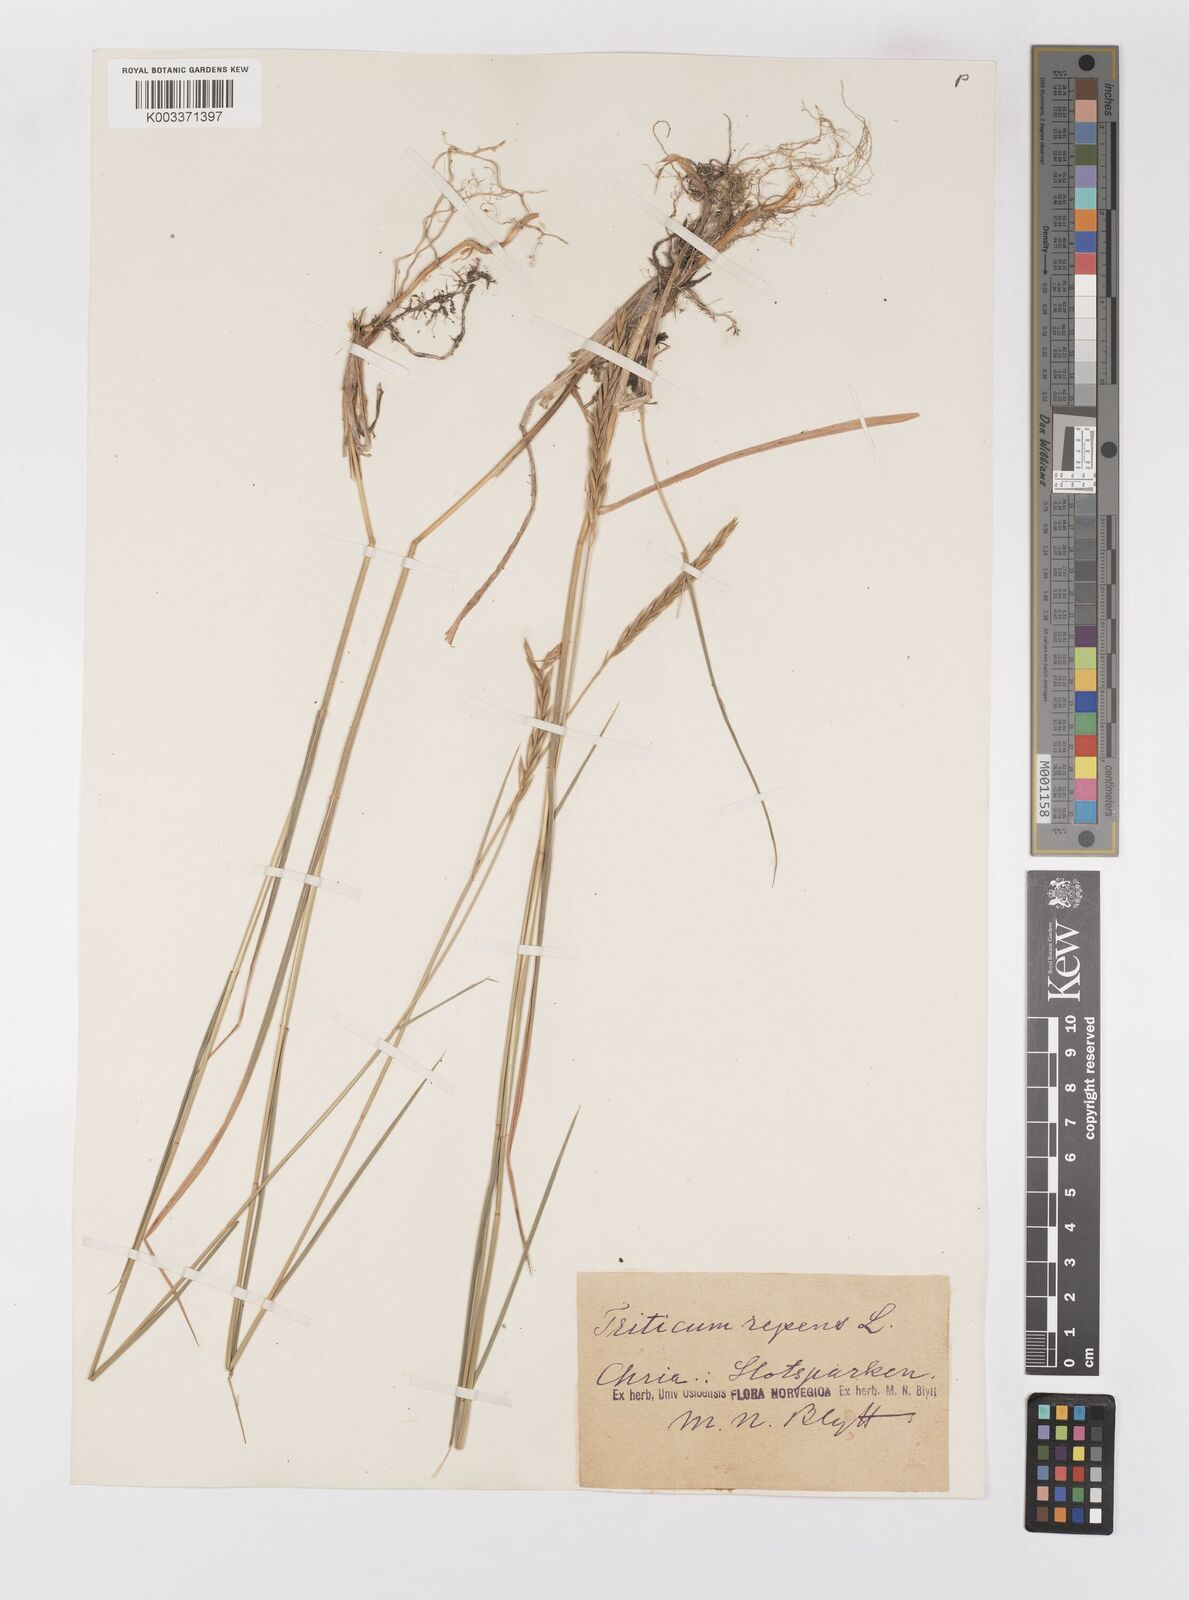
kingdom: Plantae
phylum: Tracheophyta
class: Liliopsida
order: Poales
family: Poaceae
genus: Elymus
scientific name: Elymus repens
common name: Quackgrass
